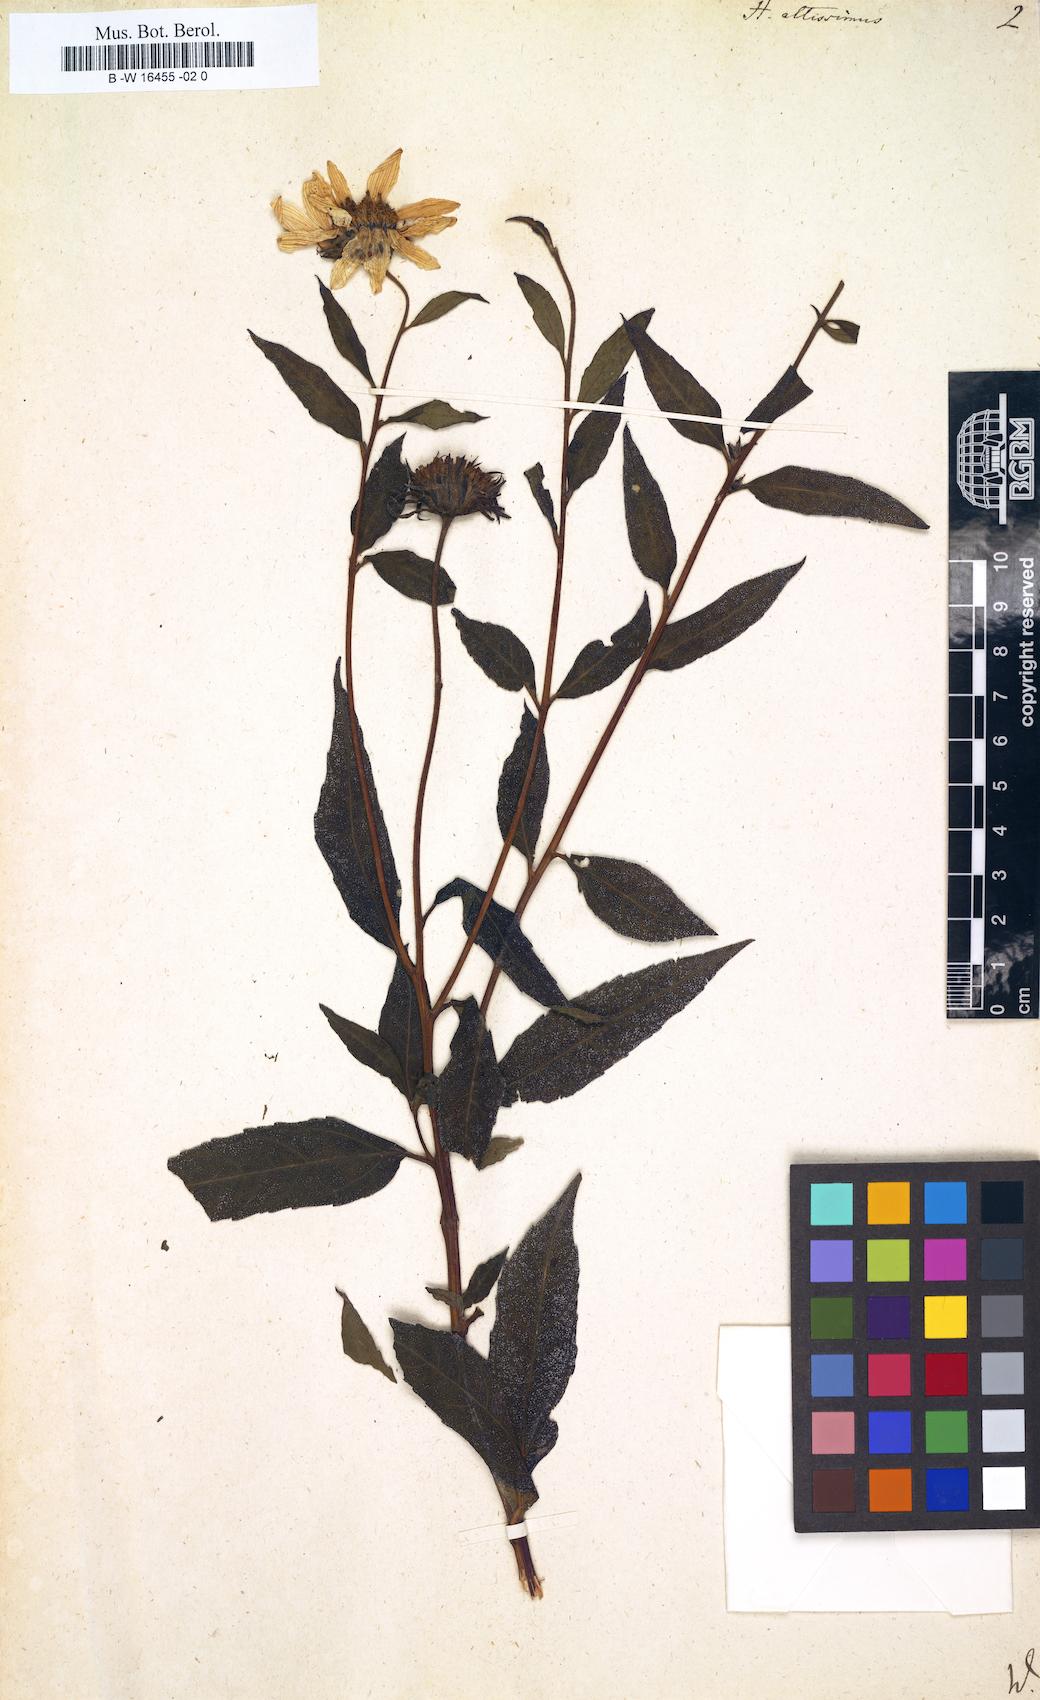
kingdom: Plantae
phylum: Tracheophyta
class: Magnoliopsida
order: Asterales
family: Asteraceae
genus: Helianthus
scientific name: Helianthus
